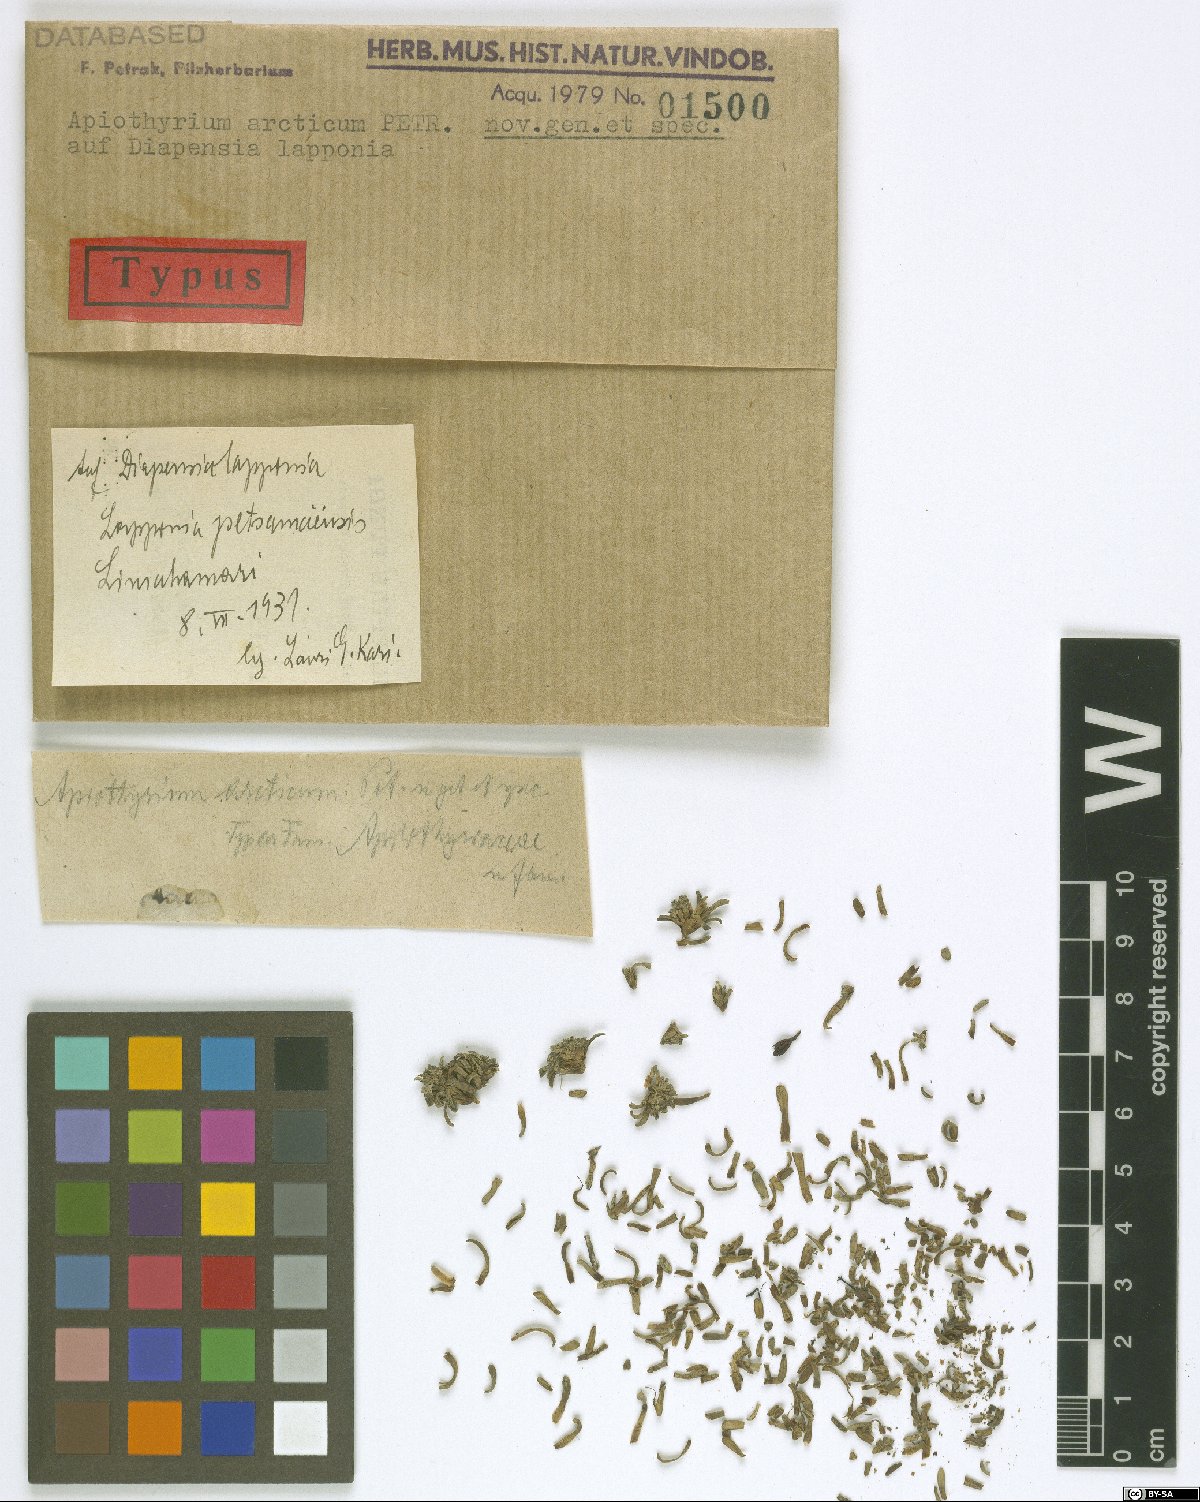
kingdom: Fungi
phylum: Ascomycota
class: Sordariomycetes
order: Xylariales
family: Hyponectriaceae
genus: Apiothyrium
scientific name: Apiothyrium arcticum
